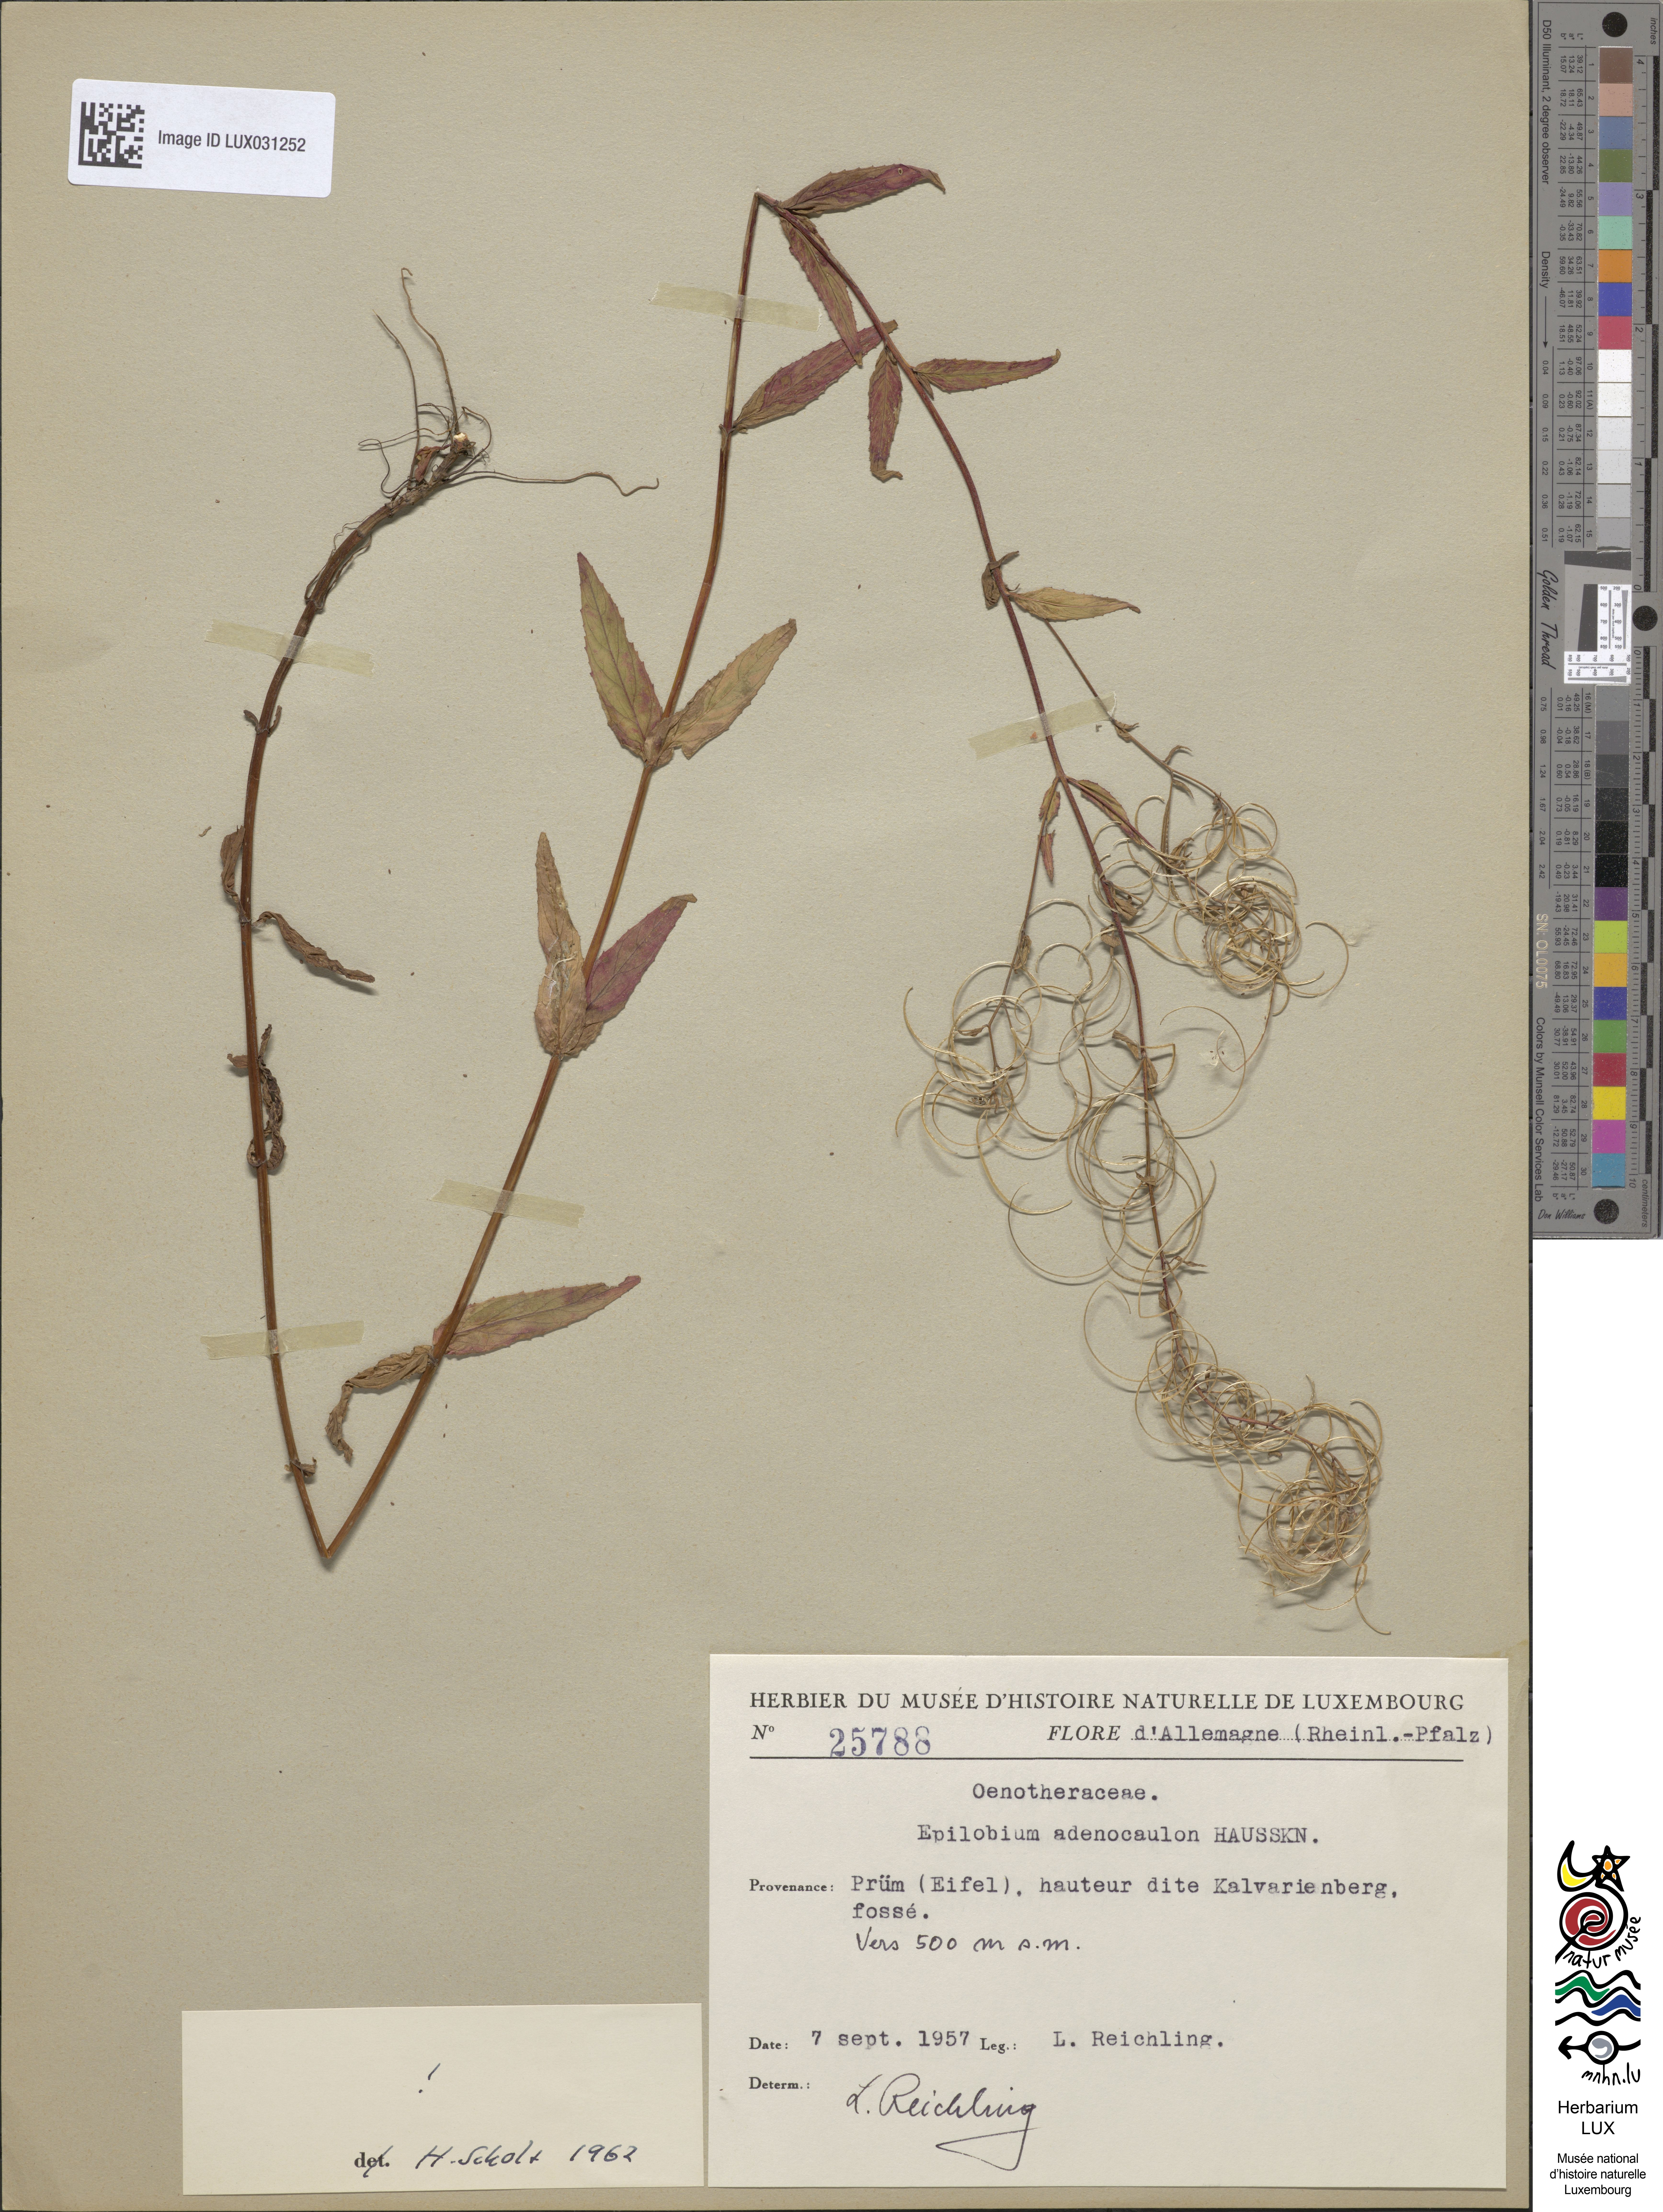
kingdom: Plantae
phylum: Tracheophyta
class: Magnoliopsida
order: Myrtales
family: Onagraceae
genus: Epilobium
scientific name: Epilobium ciliatum
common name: American willowherb
